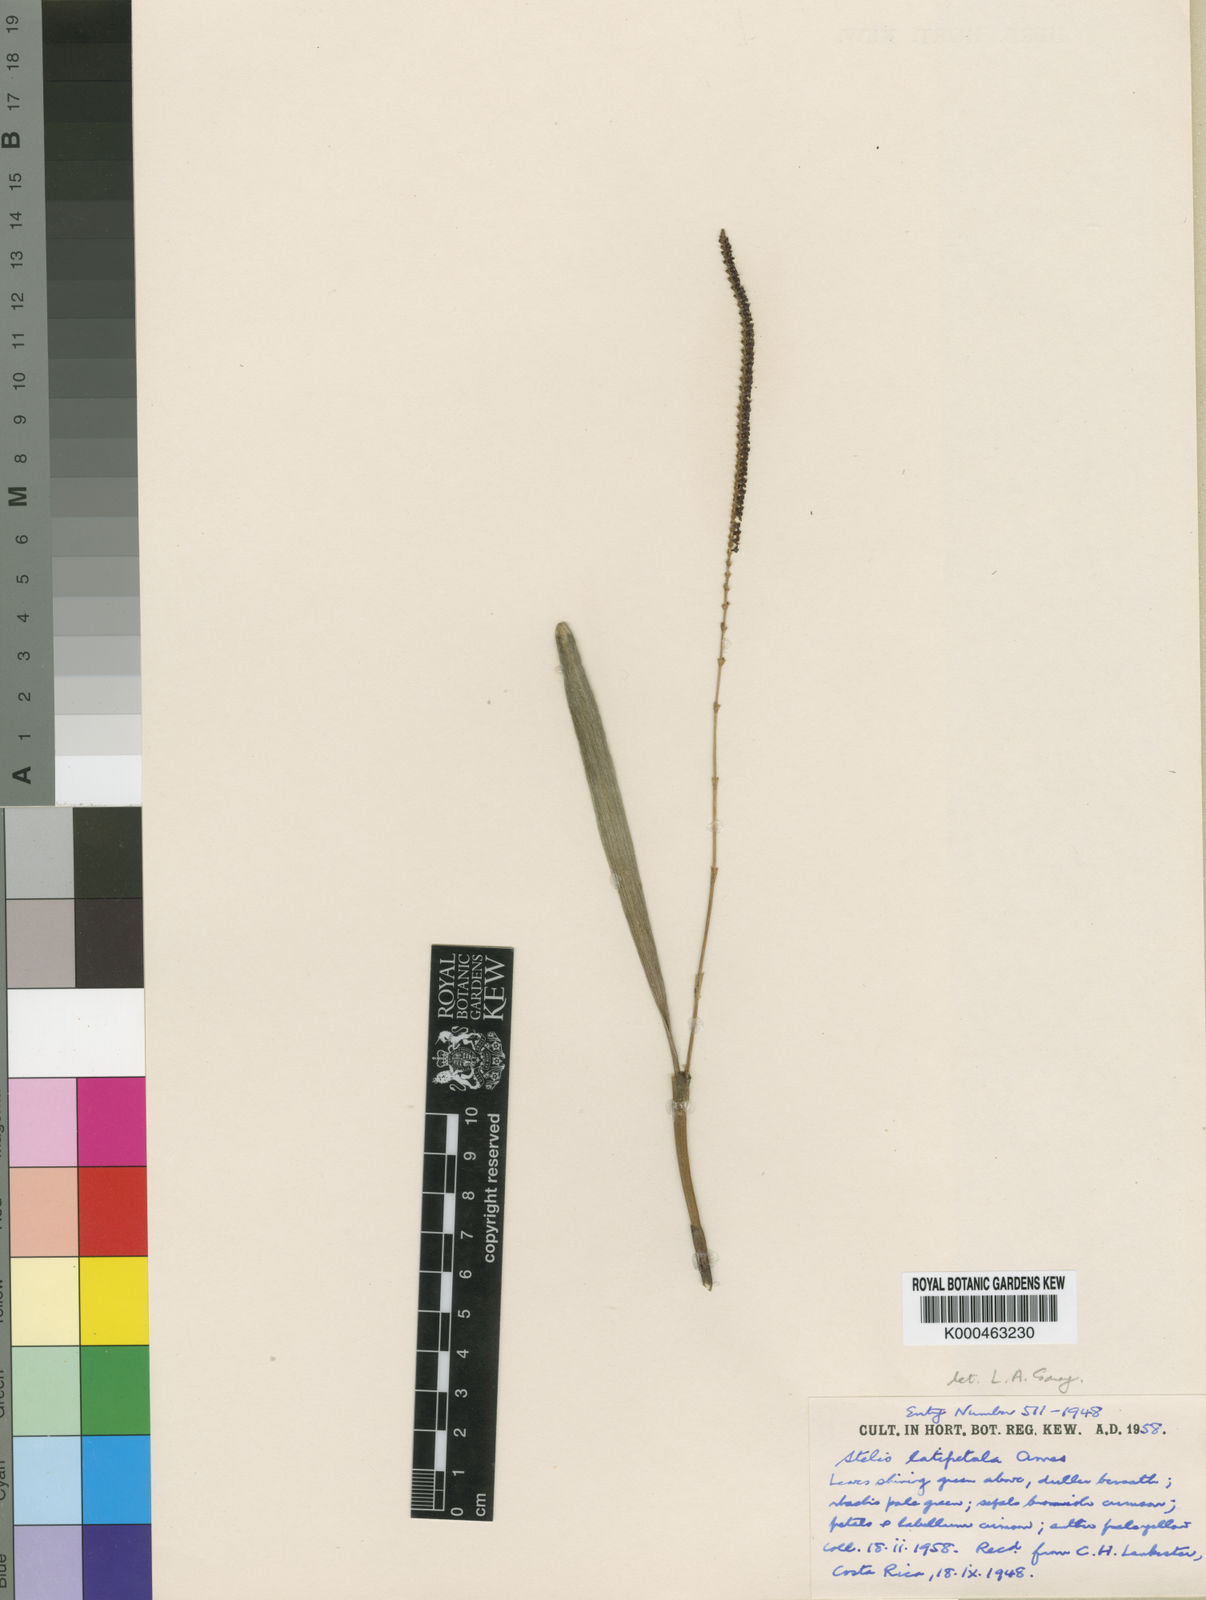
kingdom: Plantae
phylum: Tracheophyta
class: Liliopsida
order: Asparagales
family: Orchidaceae
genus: Stelis
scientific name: Stelis latipetala
